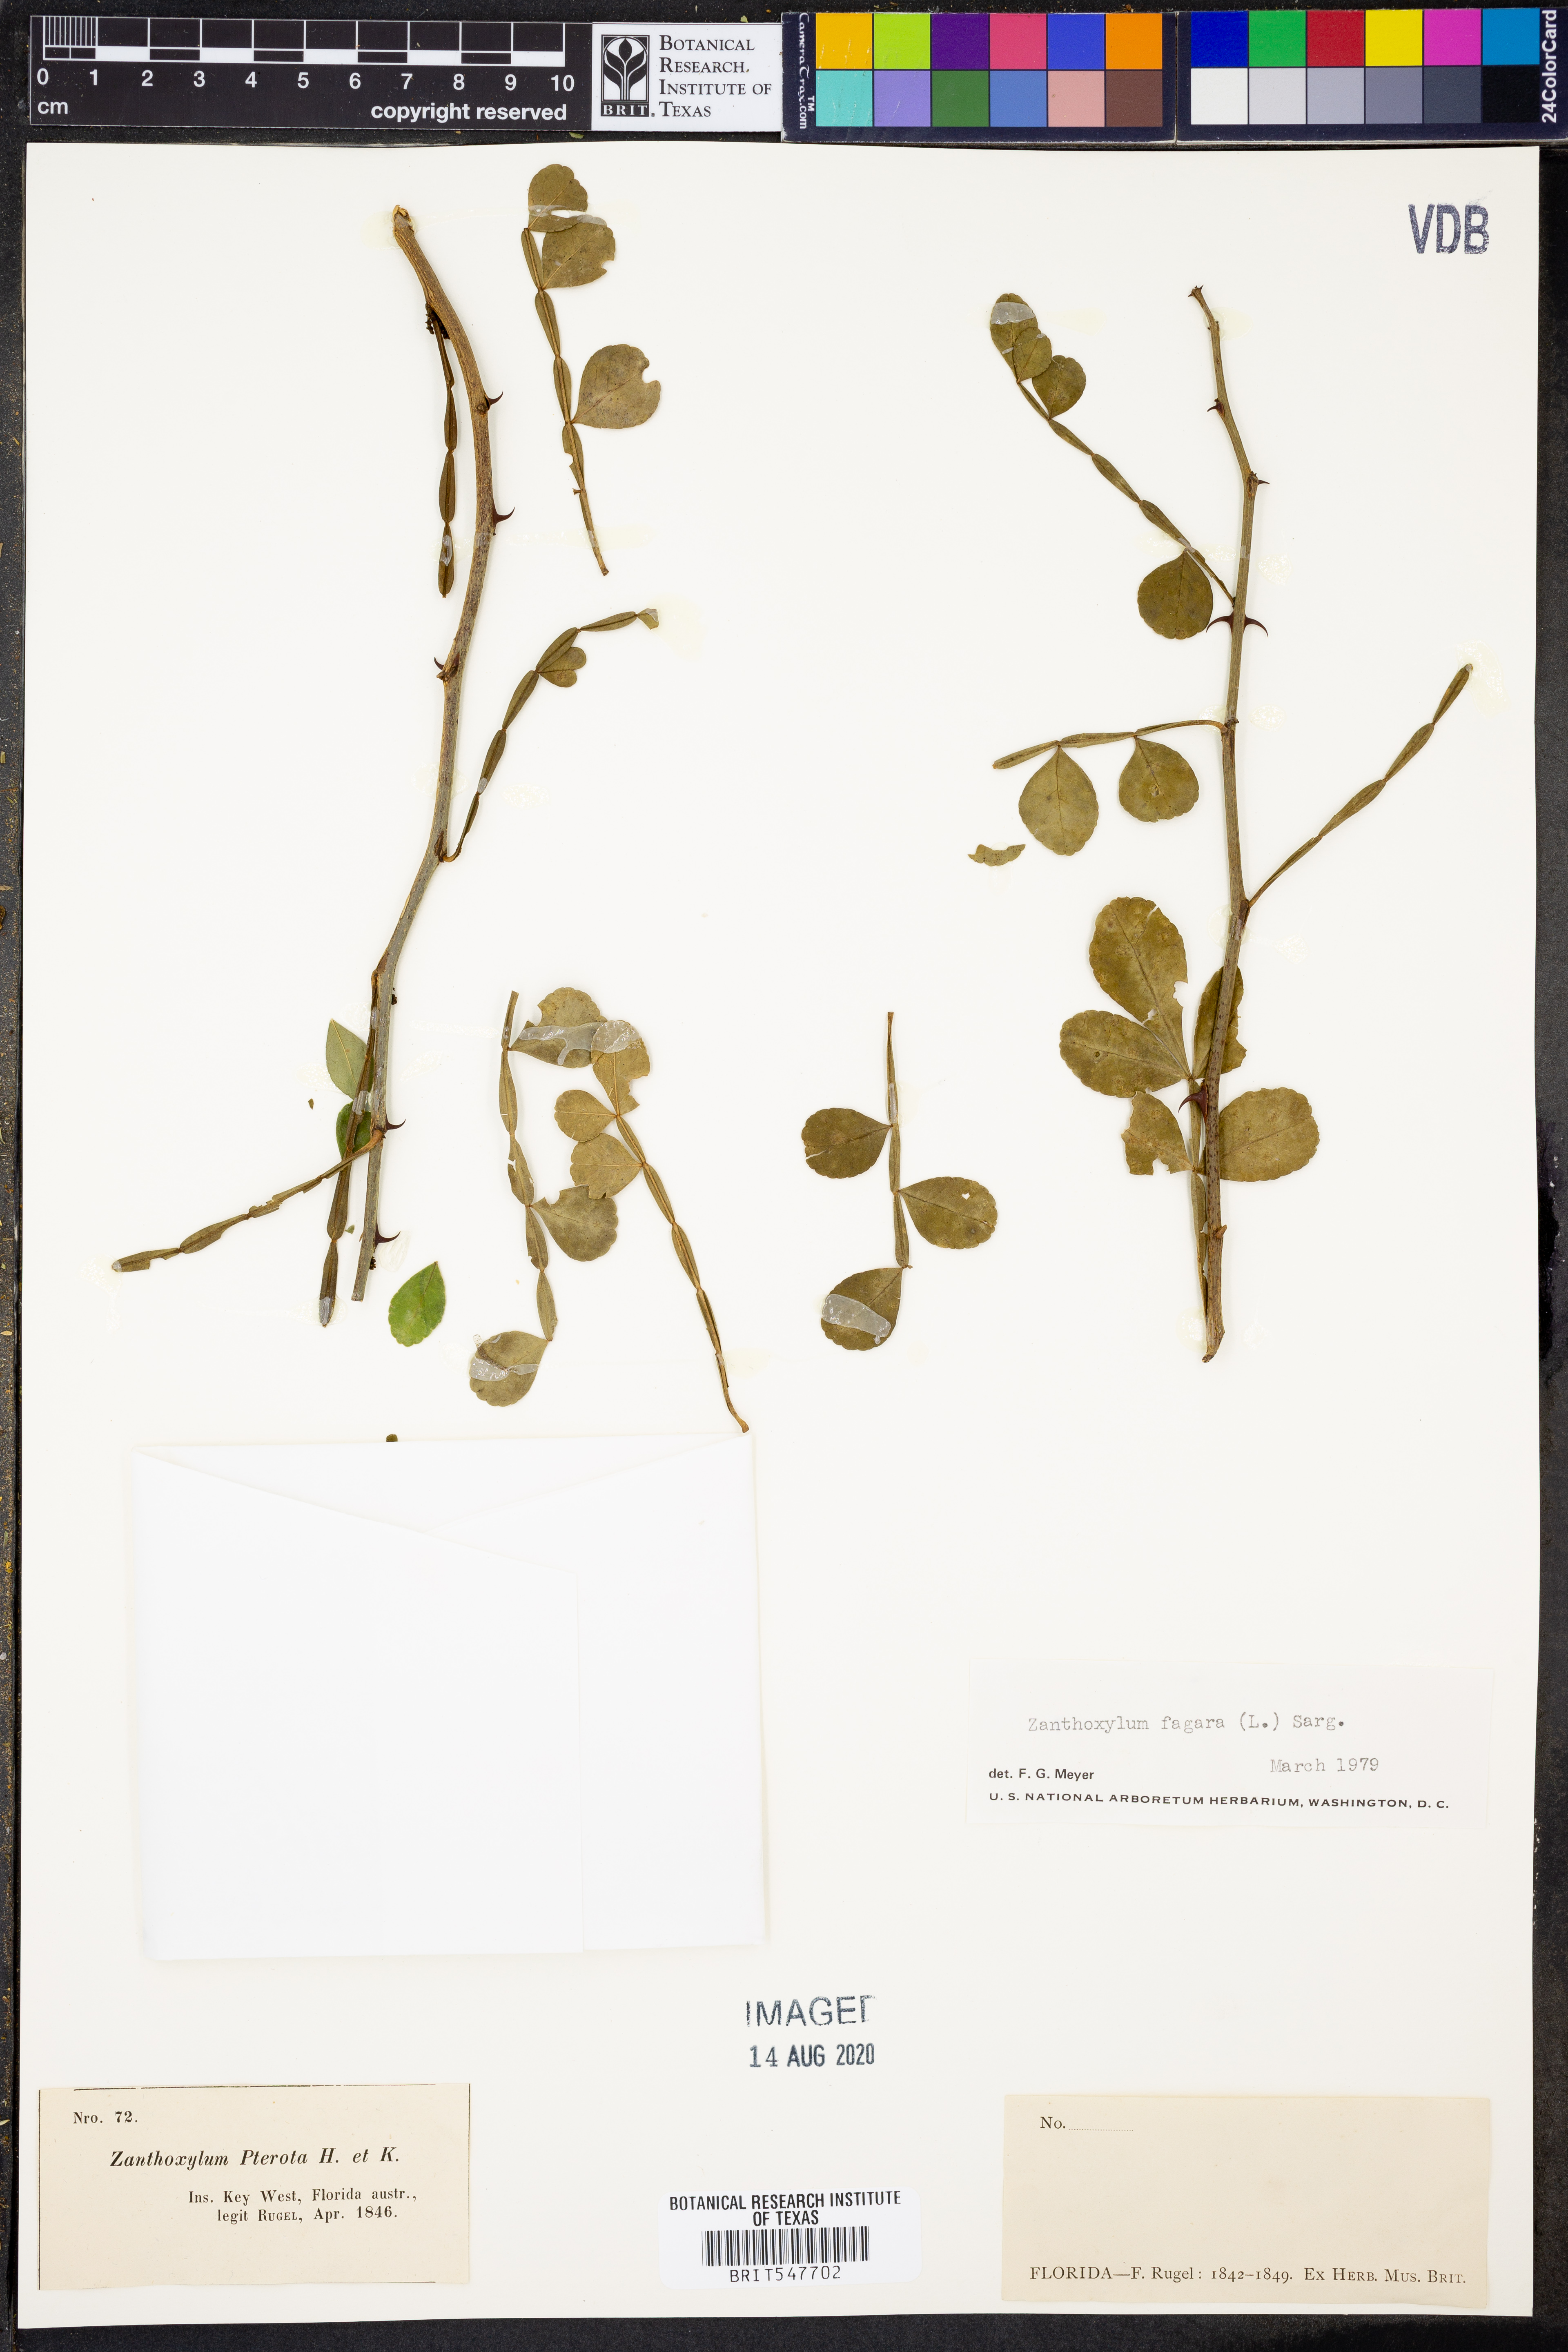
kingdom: Plantae
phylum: Tracheophyta
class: Magnoliopsida
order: Sapindales
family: Rutaceae
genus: Zanthoxylum
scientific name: Zanthoxylum fagara
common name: Lime prickly-ash
